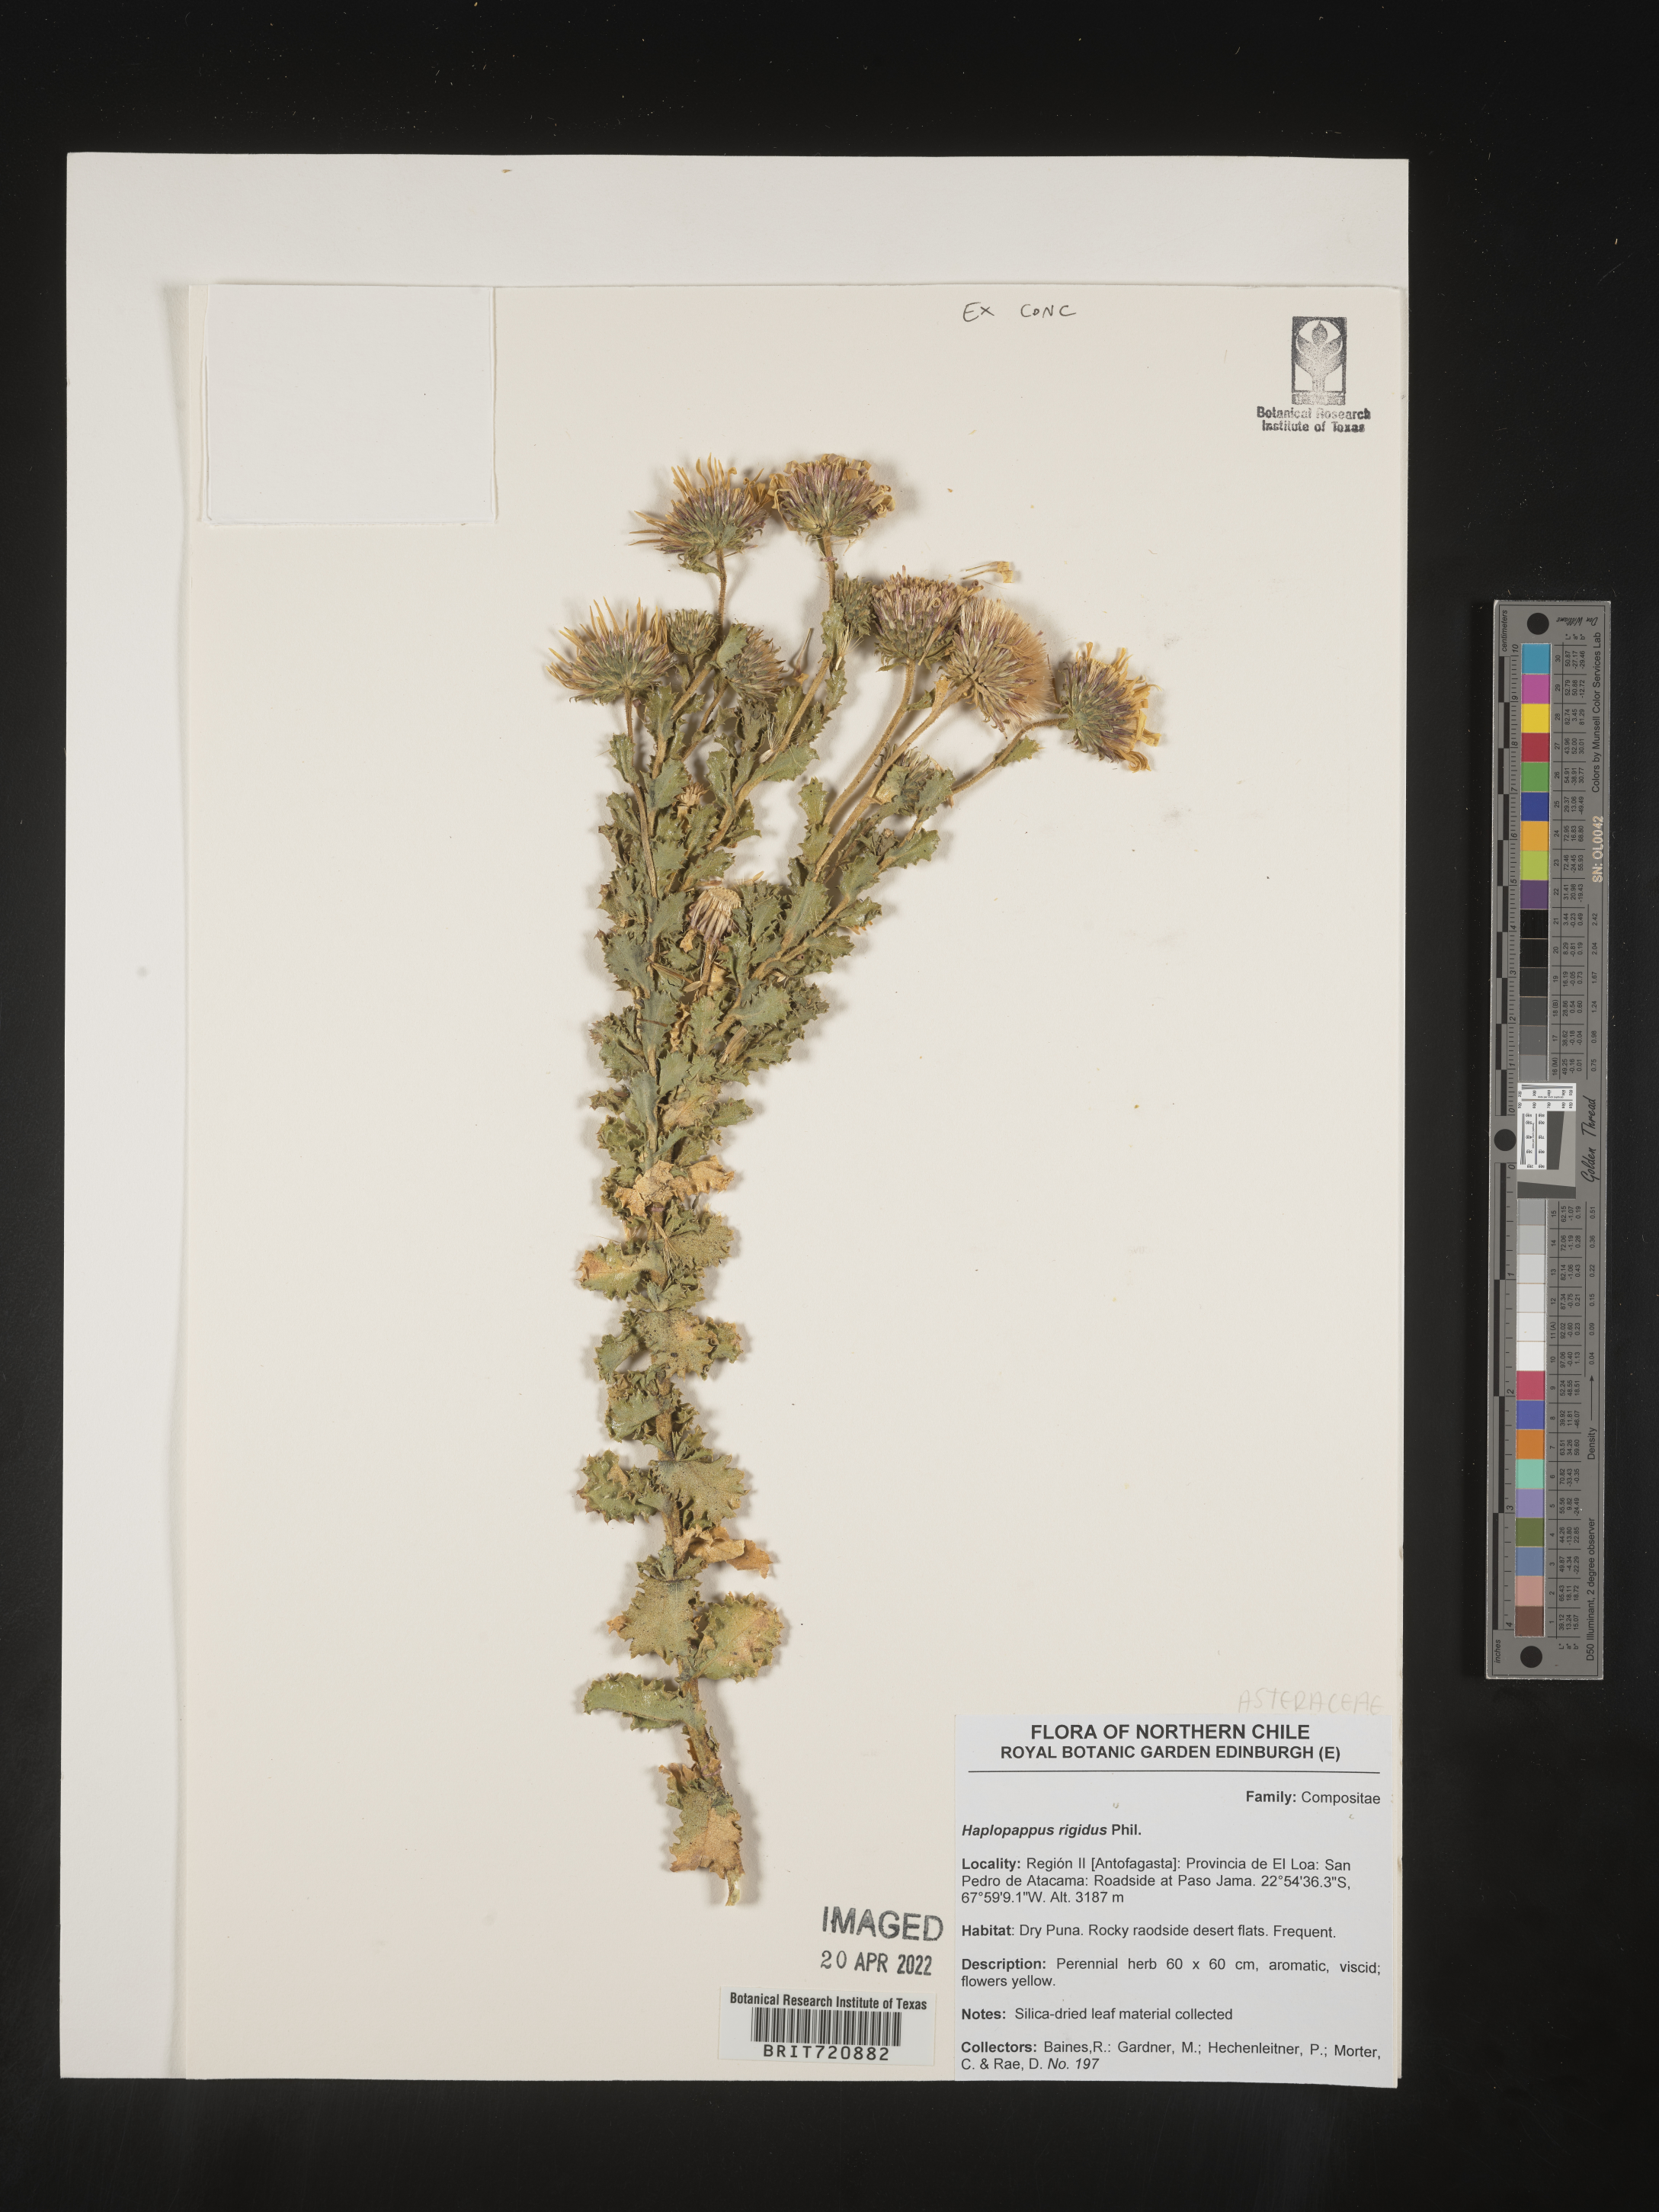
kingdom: Plantae
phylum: Tracheophyta
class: Magnoliopsida
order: Asterales
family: Asteraceae
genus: Haplopappus
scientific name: Haplopappus
